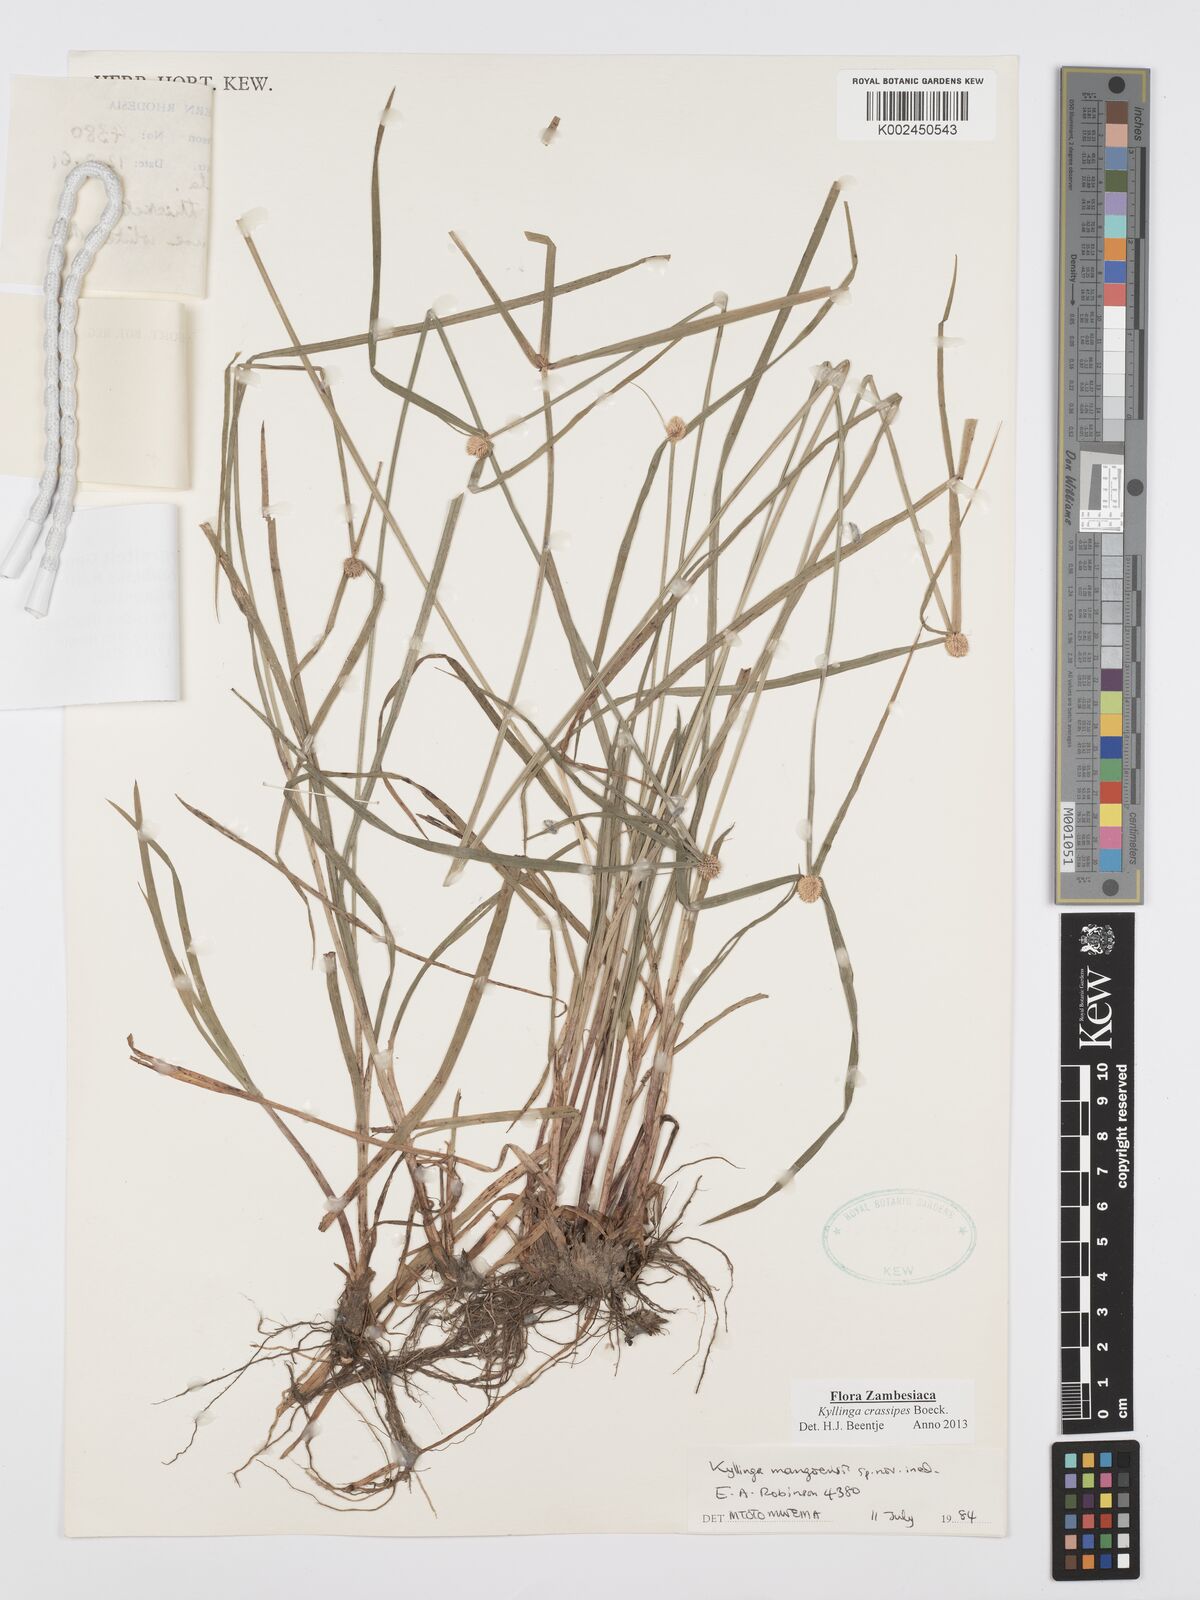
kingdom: Plantae
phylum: Tracheophyta
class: Liliopsida
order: Poales
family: Cyperaceae
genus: Cyperus
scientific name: Cyperus crassipes
